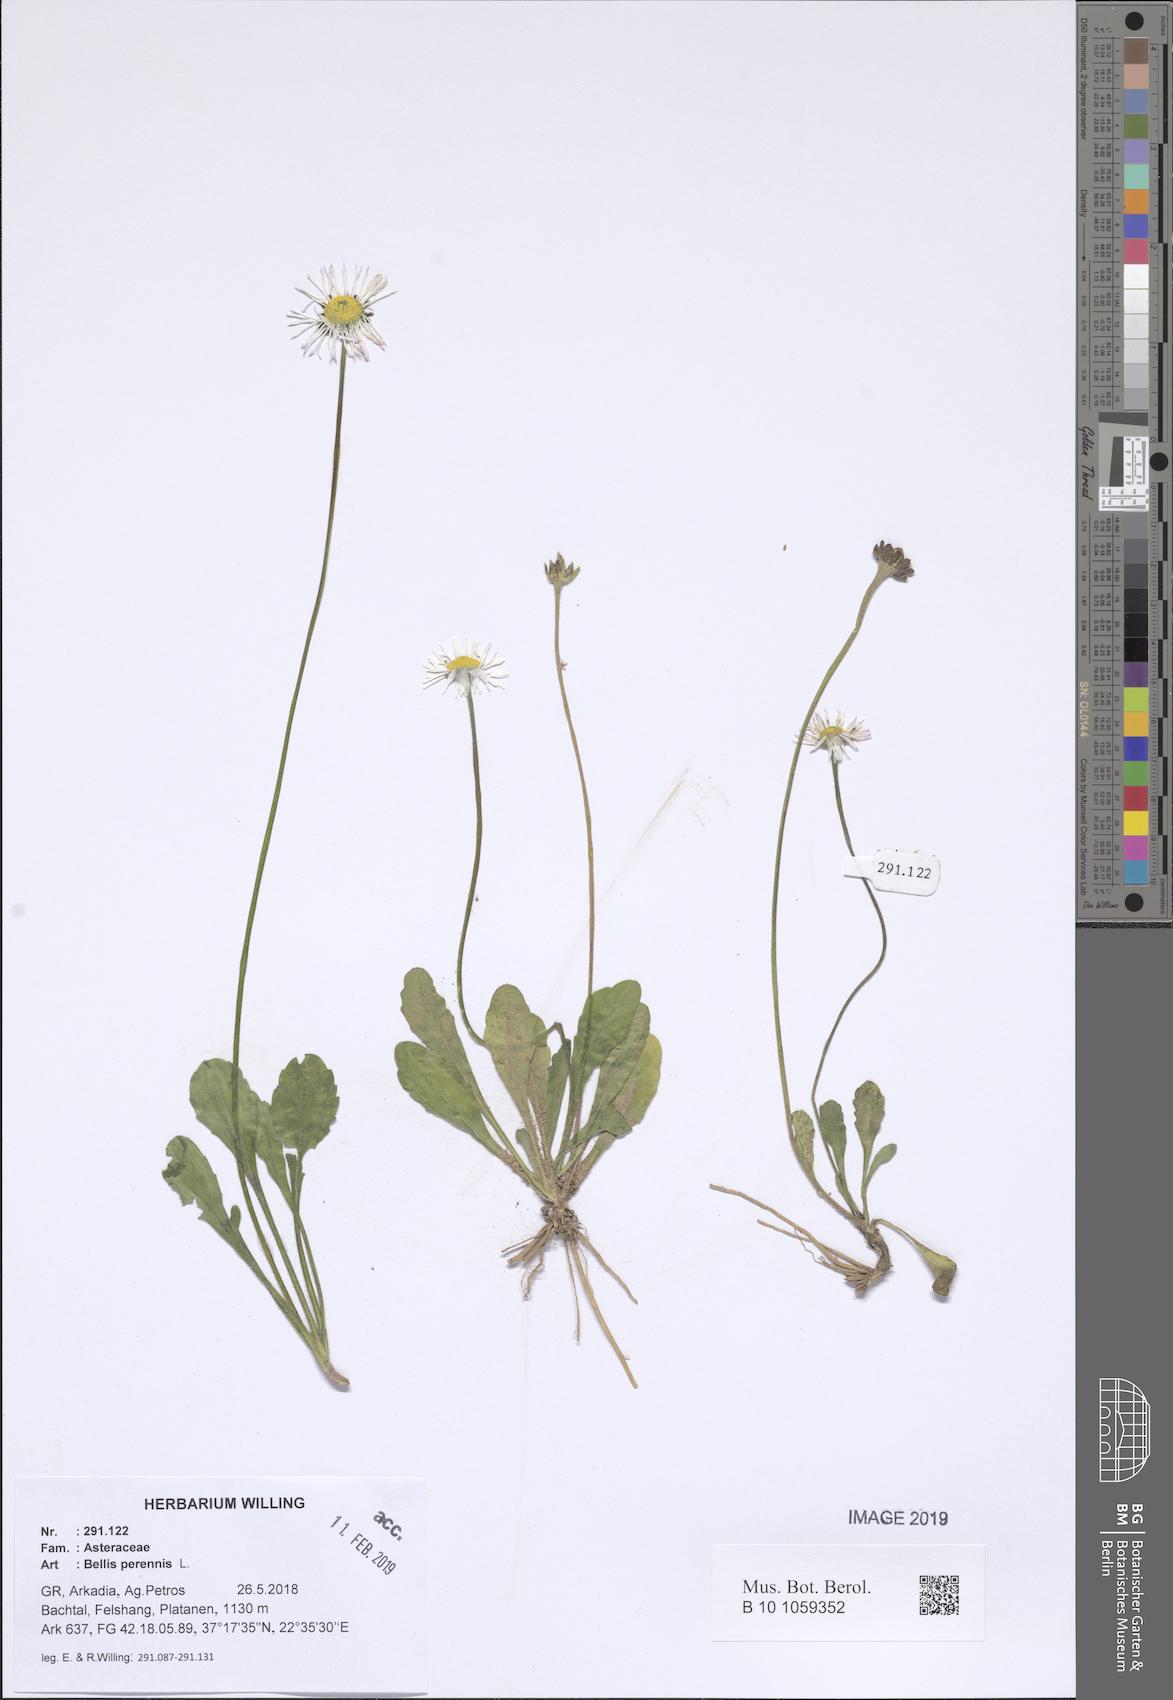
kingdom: Plantae
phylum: Tracheophyta
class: Magnoliopsida
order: Asterales
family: Asteraceae
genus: Bellis
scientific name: Bellis perennis
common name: Lawndaisy
